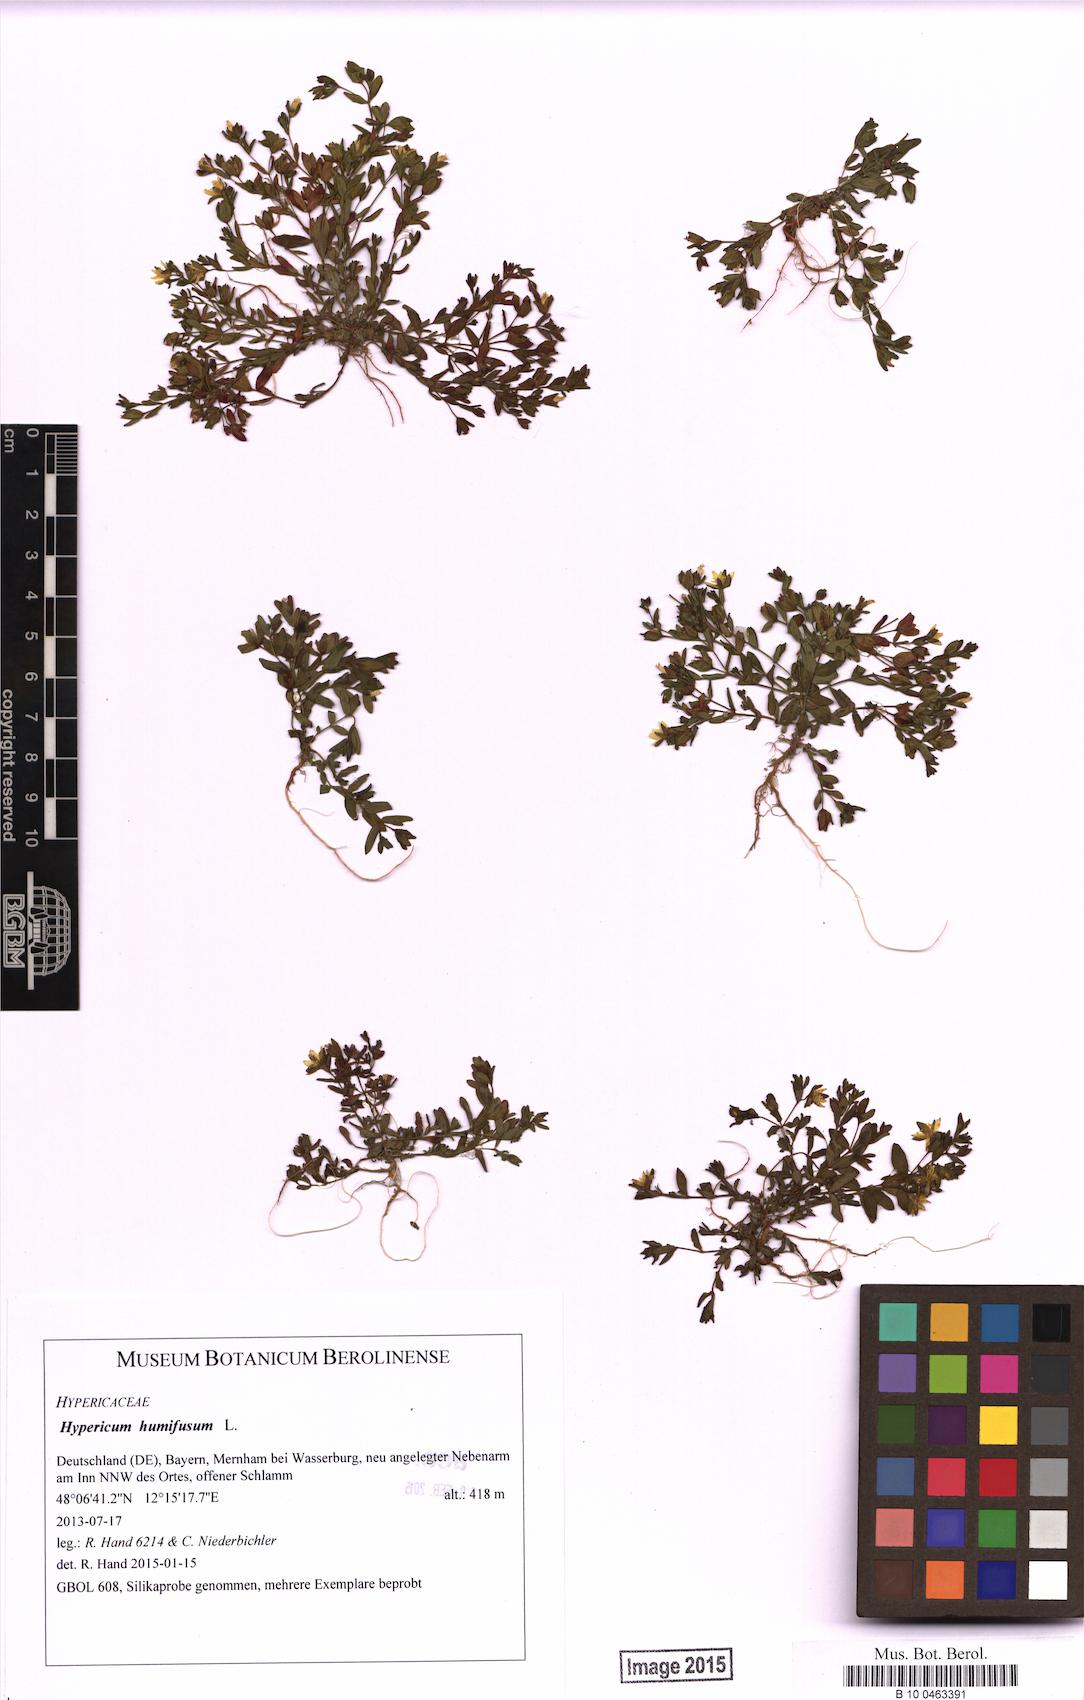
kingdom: Plantae
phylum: Tracheophyta
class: Magnoliopsida
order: Malpighiales
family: Hypericaceae
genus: Hypericum
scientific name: Hypericum humifusum
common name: Trailing st. john's-wort
